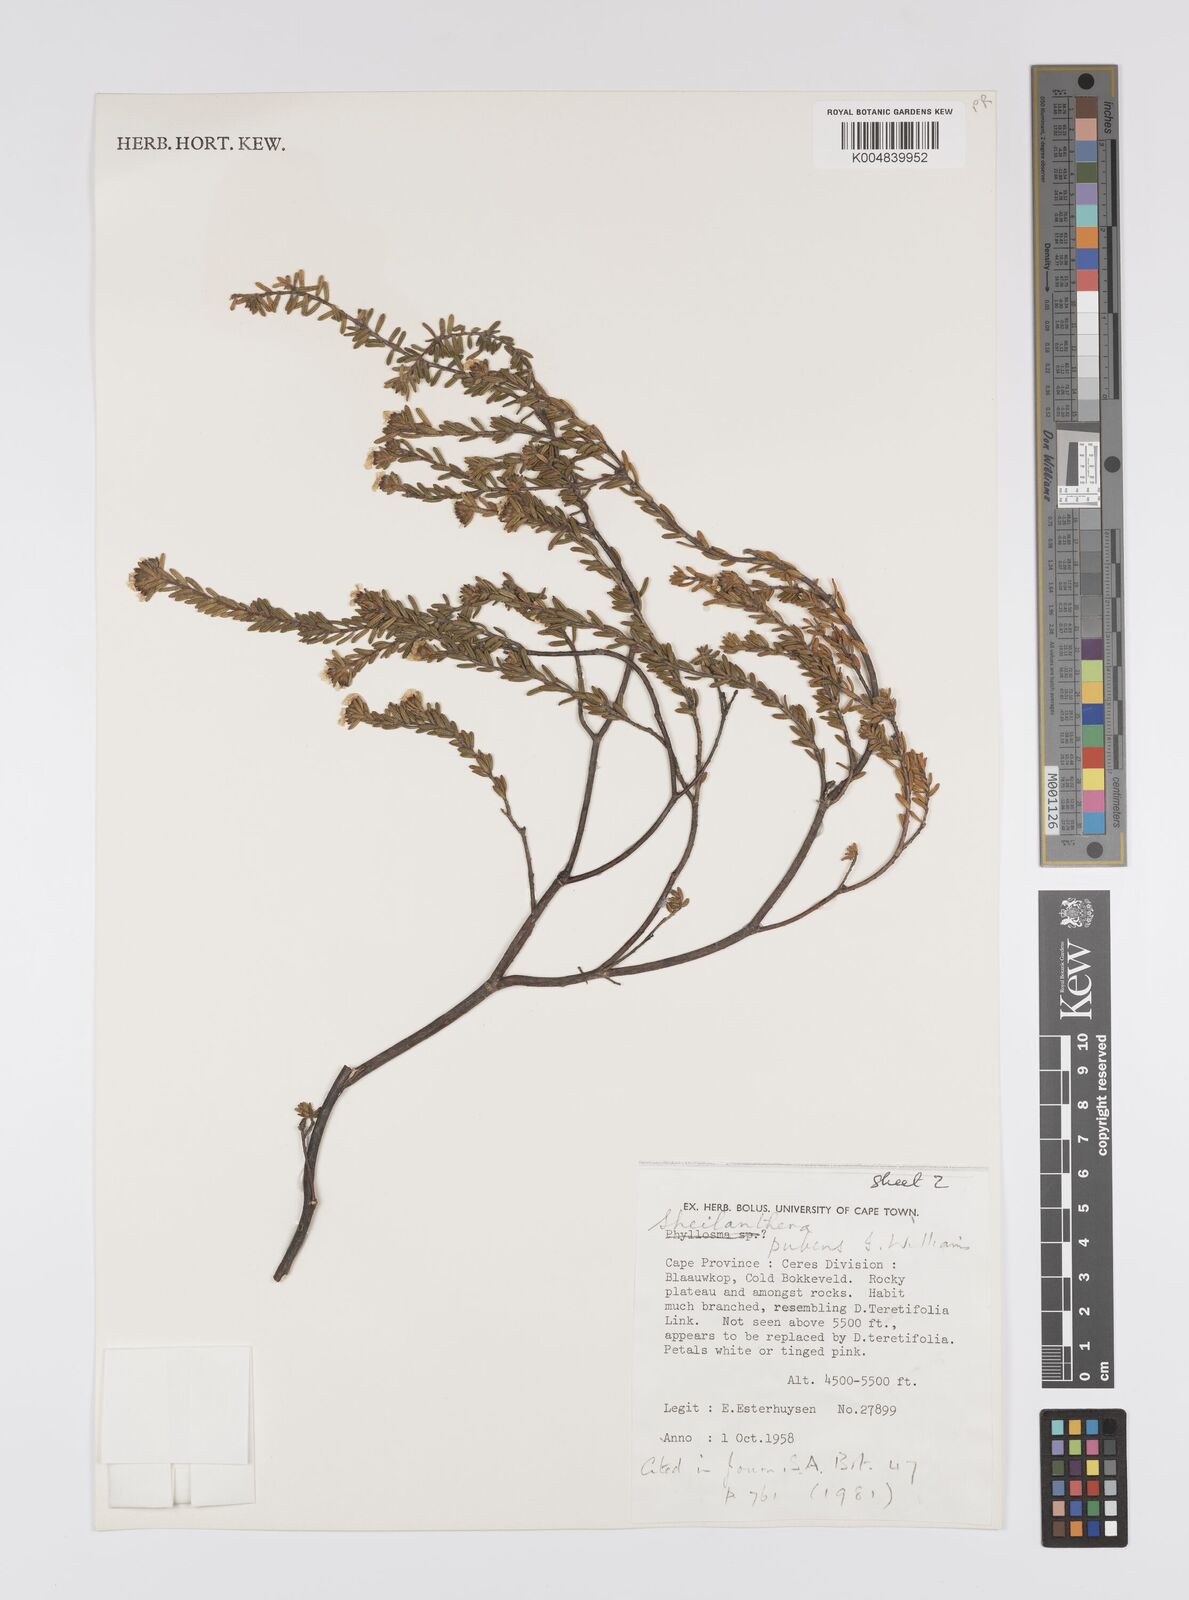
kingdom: Plantae
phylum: Tracheophyta
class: Magnoliopsida
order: Sapindales
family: Rutaceae
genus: Sheilanthera
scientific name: Sheilanthera pubens
